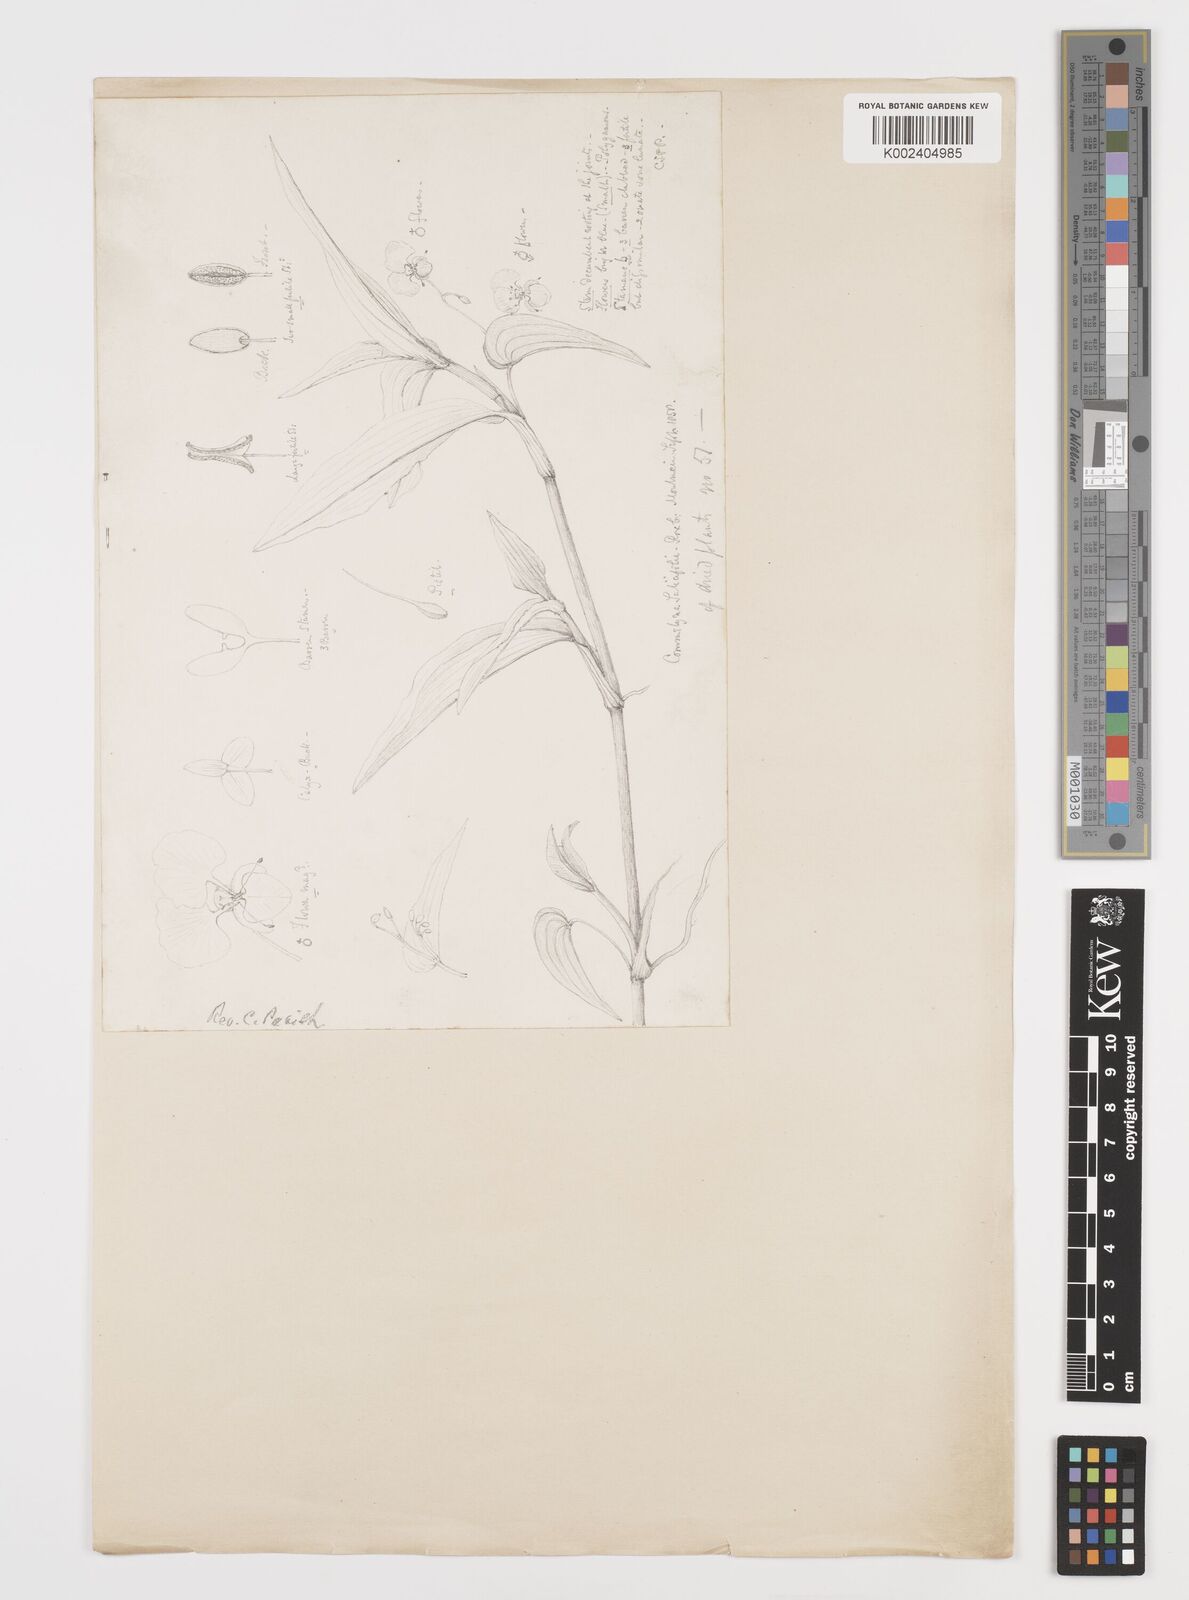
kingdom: Plantae
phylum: Tracheophyta
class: Liliopsida
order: Commelinales
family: Commelinaceae
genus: Commelina
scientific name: Commelina undulata
